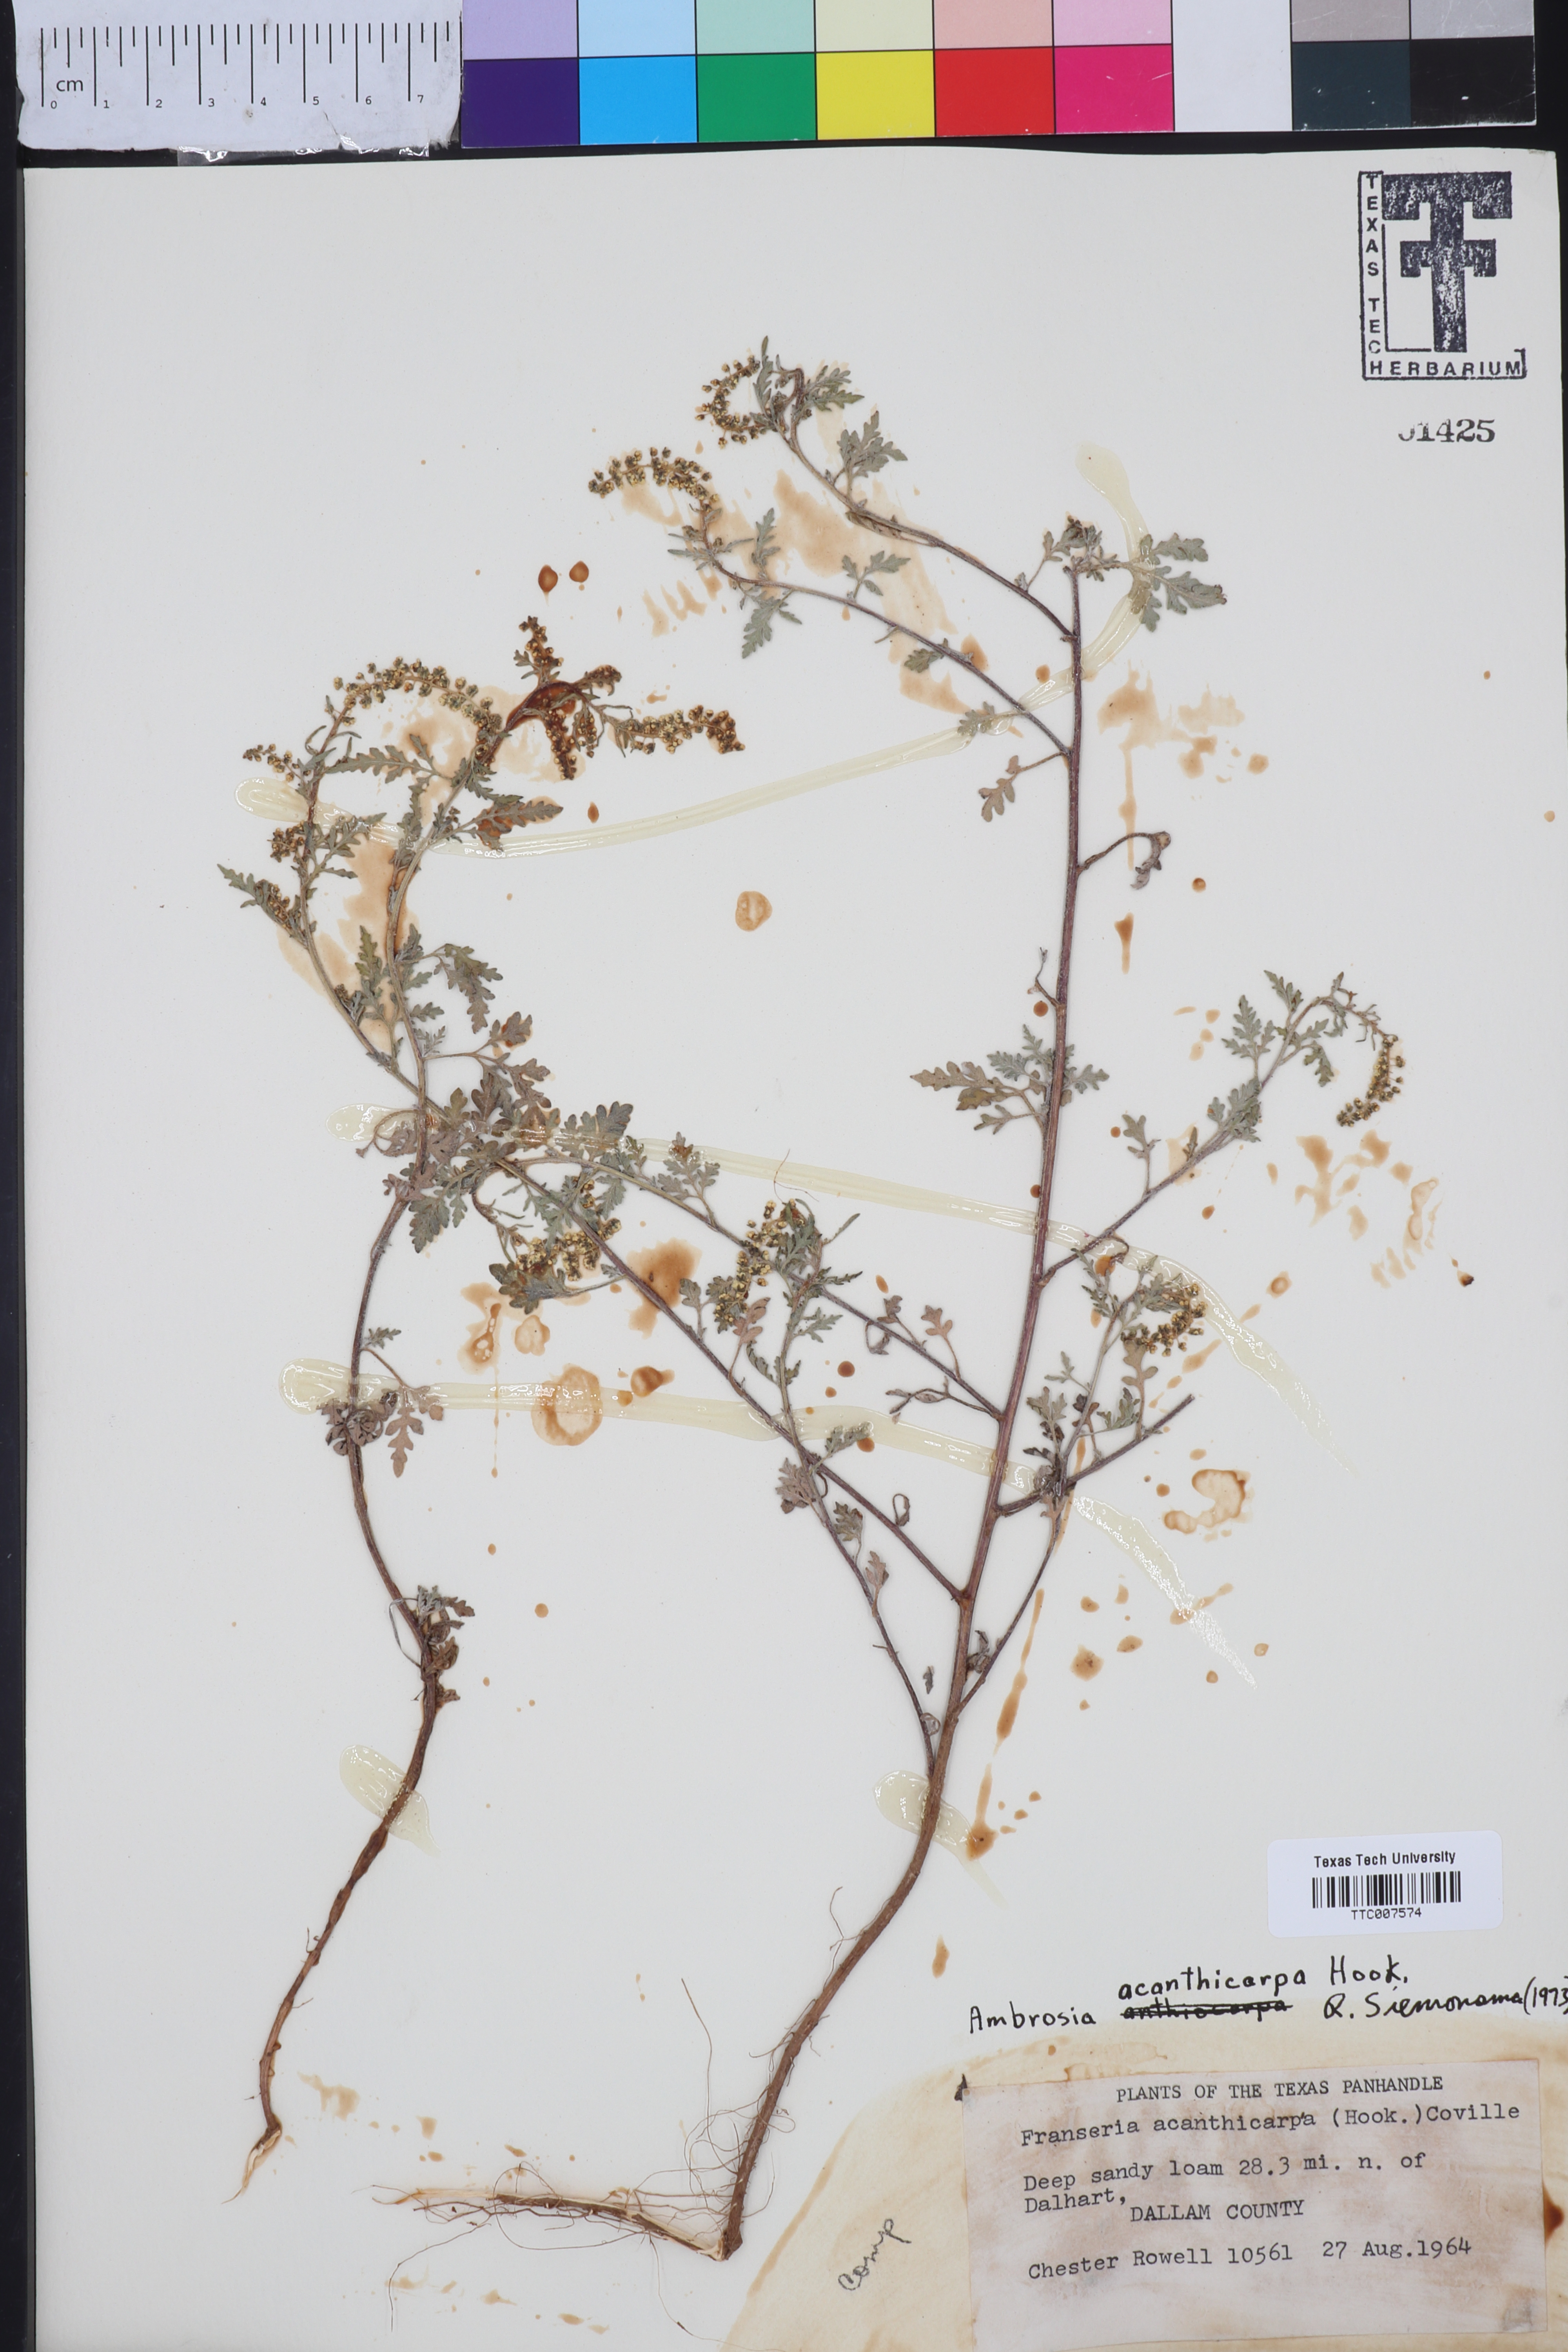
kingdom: Plantae
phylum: Tracheophyta
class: Magnoliopsida
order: Asterales
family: Asteraceae
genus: Ambrosia
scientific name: Ambrosia acanthicarpa
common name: Hooker's bur ragweed
